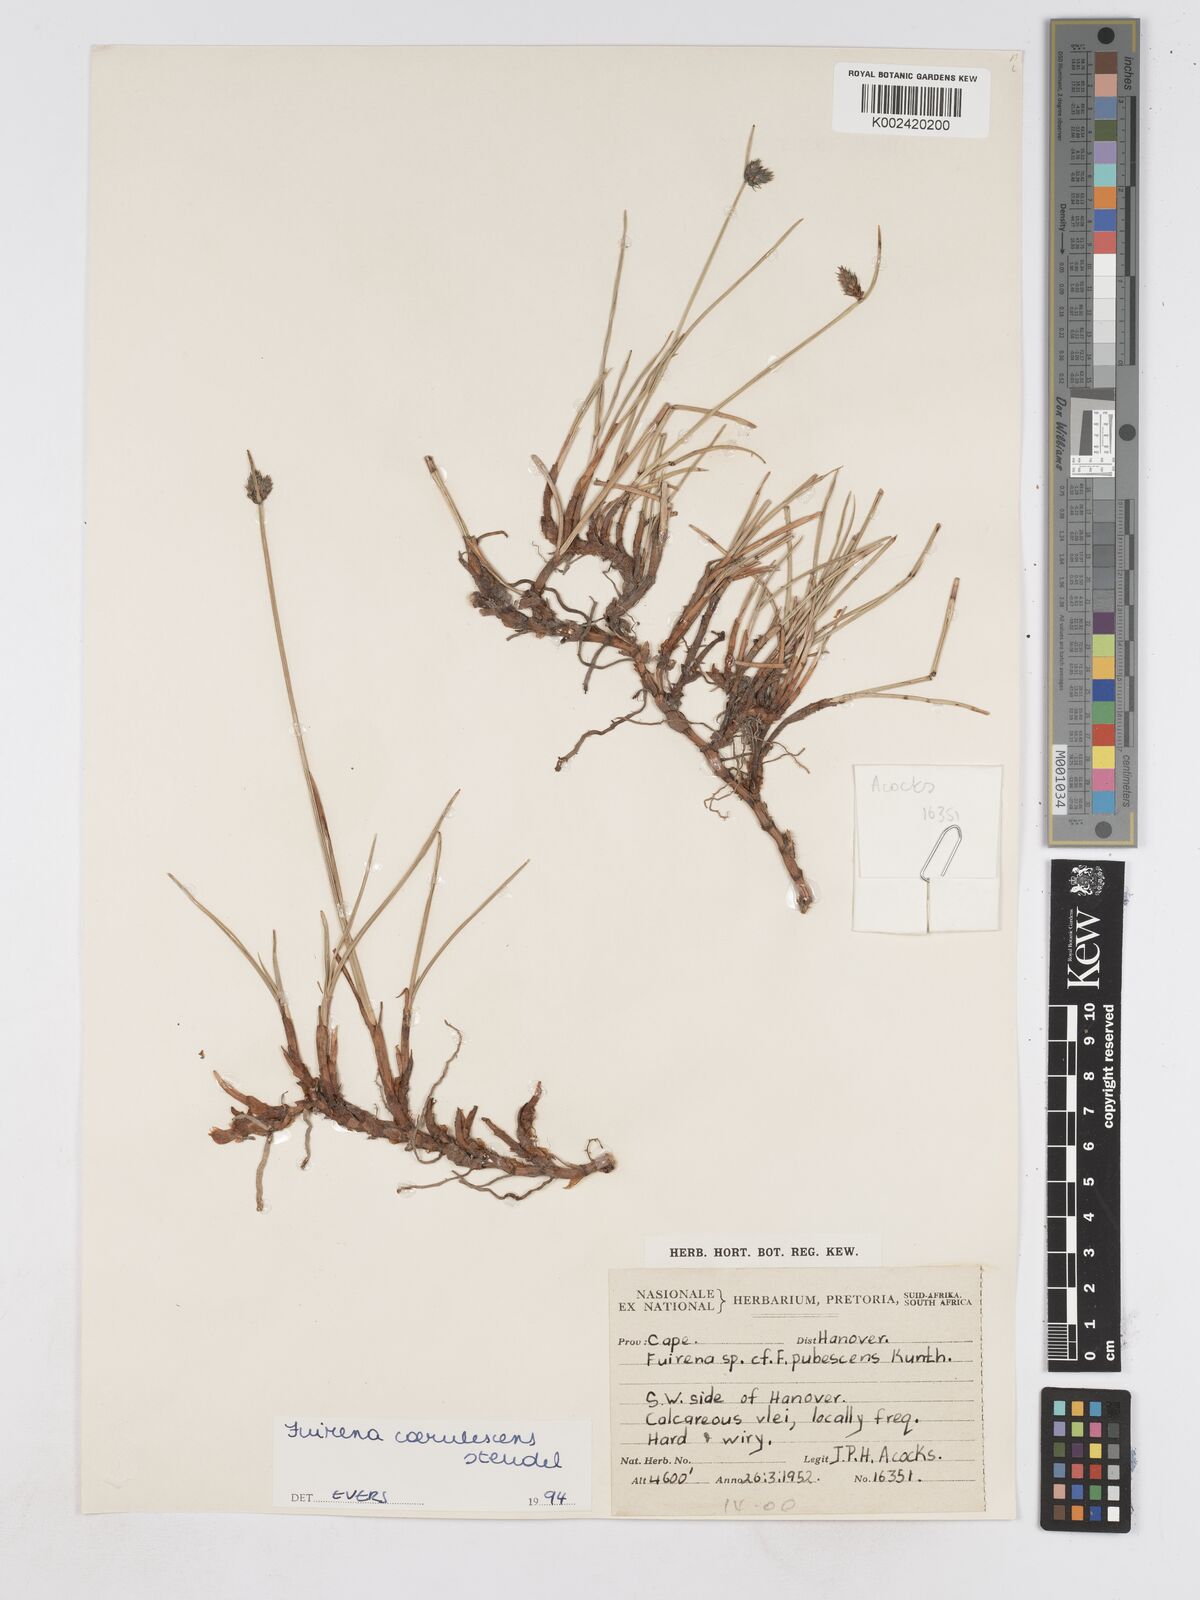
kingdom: Plantae
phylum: Tracheophyta
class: Liliopsida
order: Poales
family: Cyperaceae
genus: Fuirena
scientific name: Fuirena coerulescens
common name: Blue umbrella-sedge
